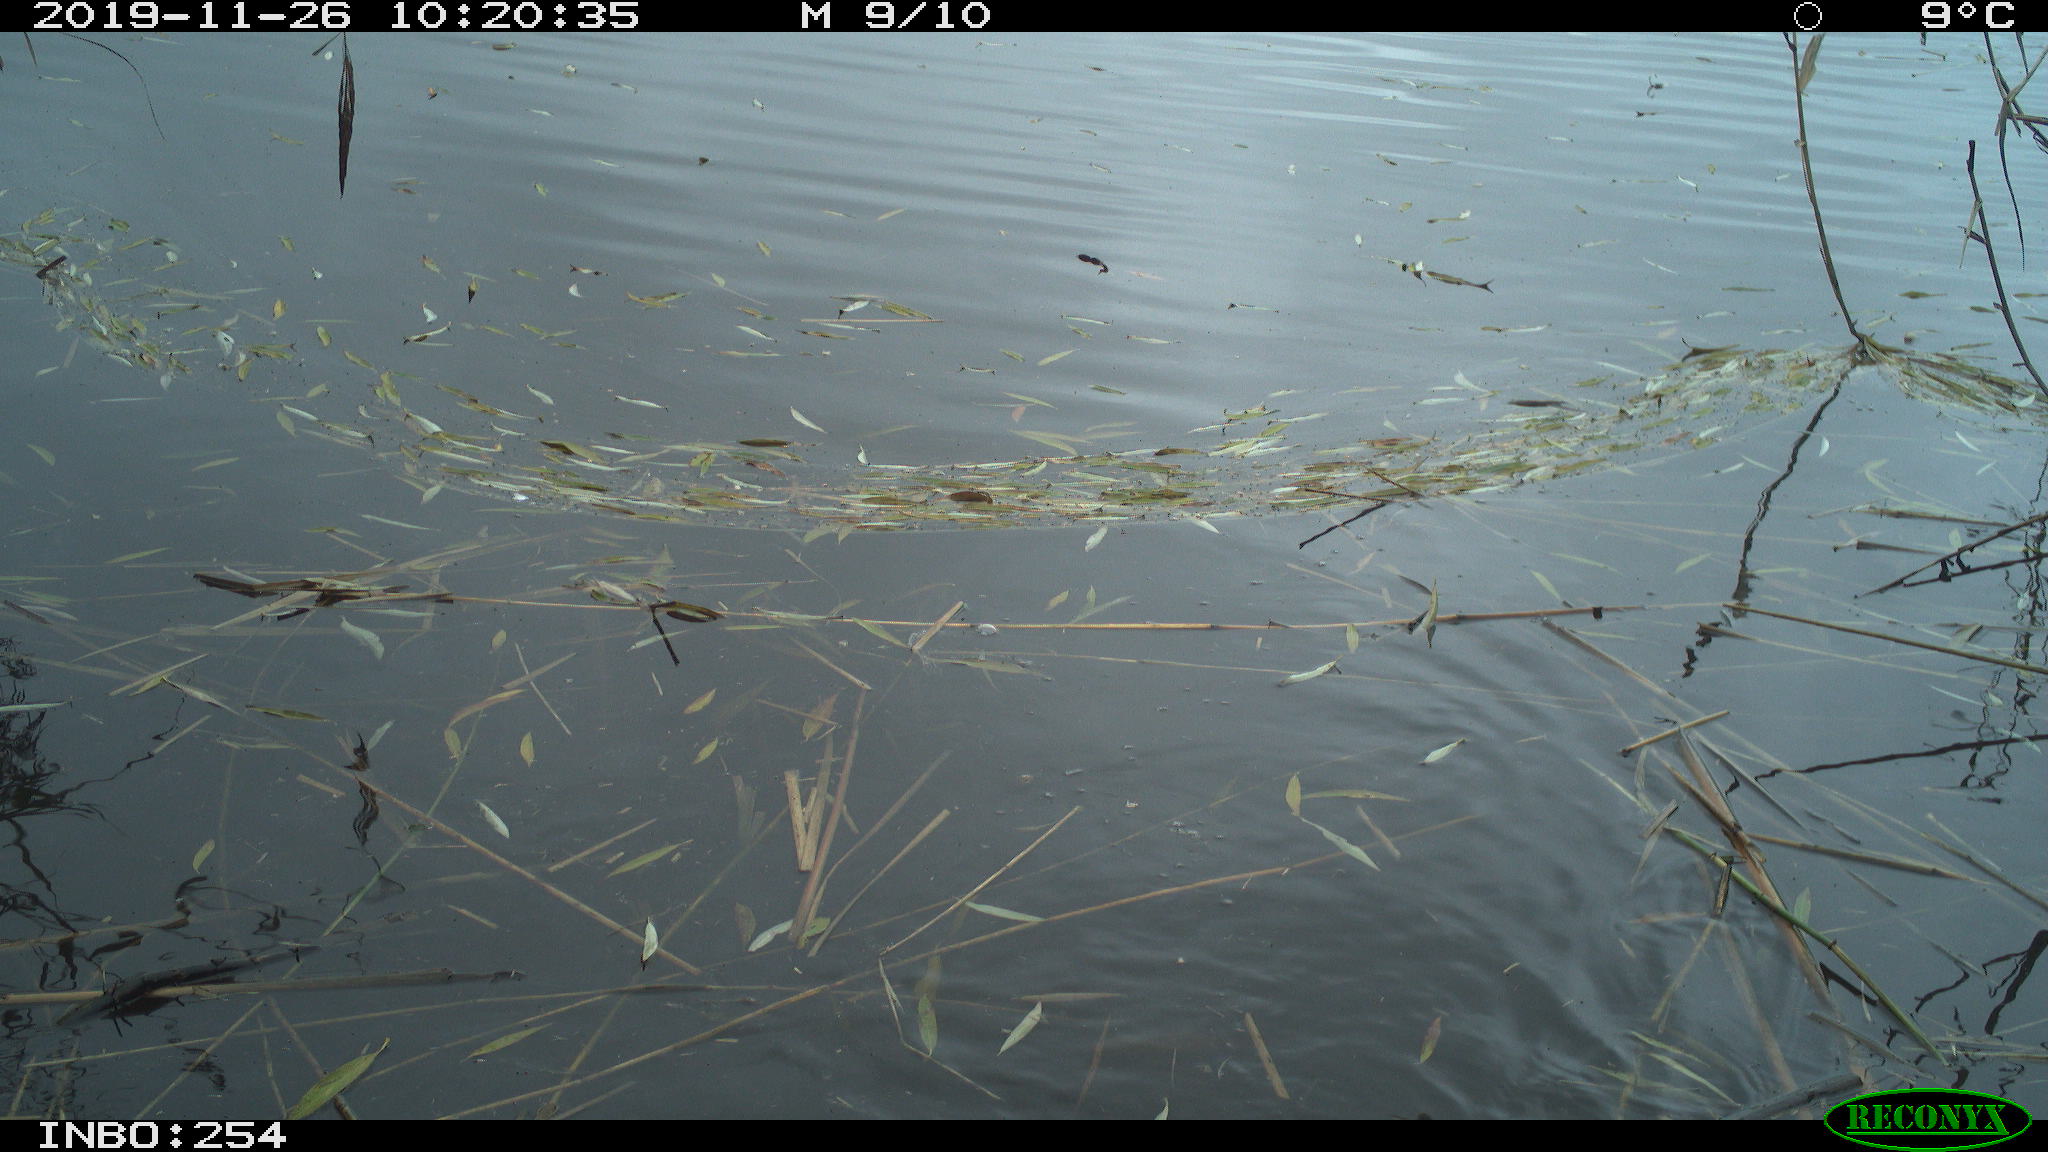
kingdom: Animalia
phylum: Chordata
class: Aves
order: Gruiformes
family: Rallidae
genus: Gallinula
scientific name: Gallinula chloropus
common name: Common moorhen
